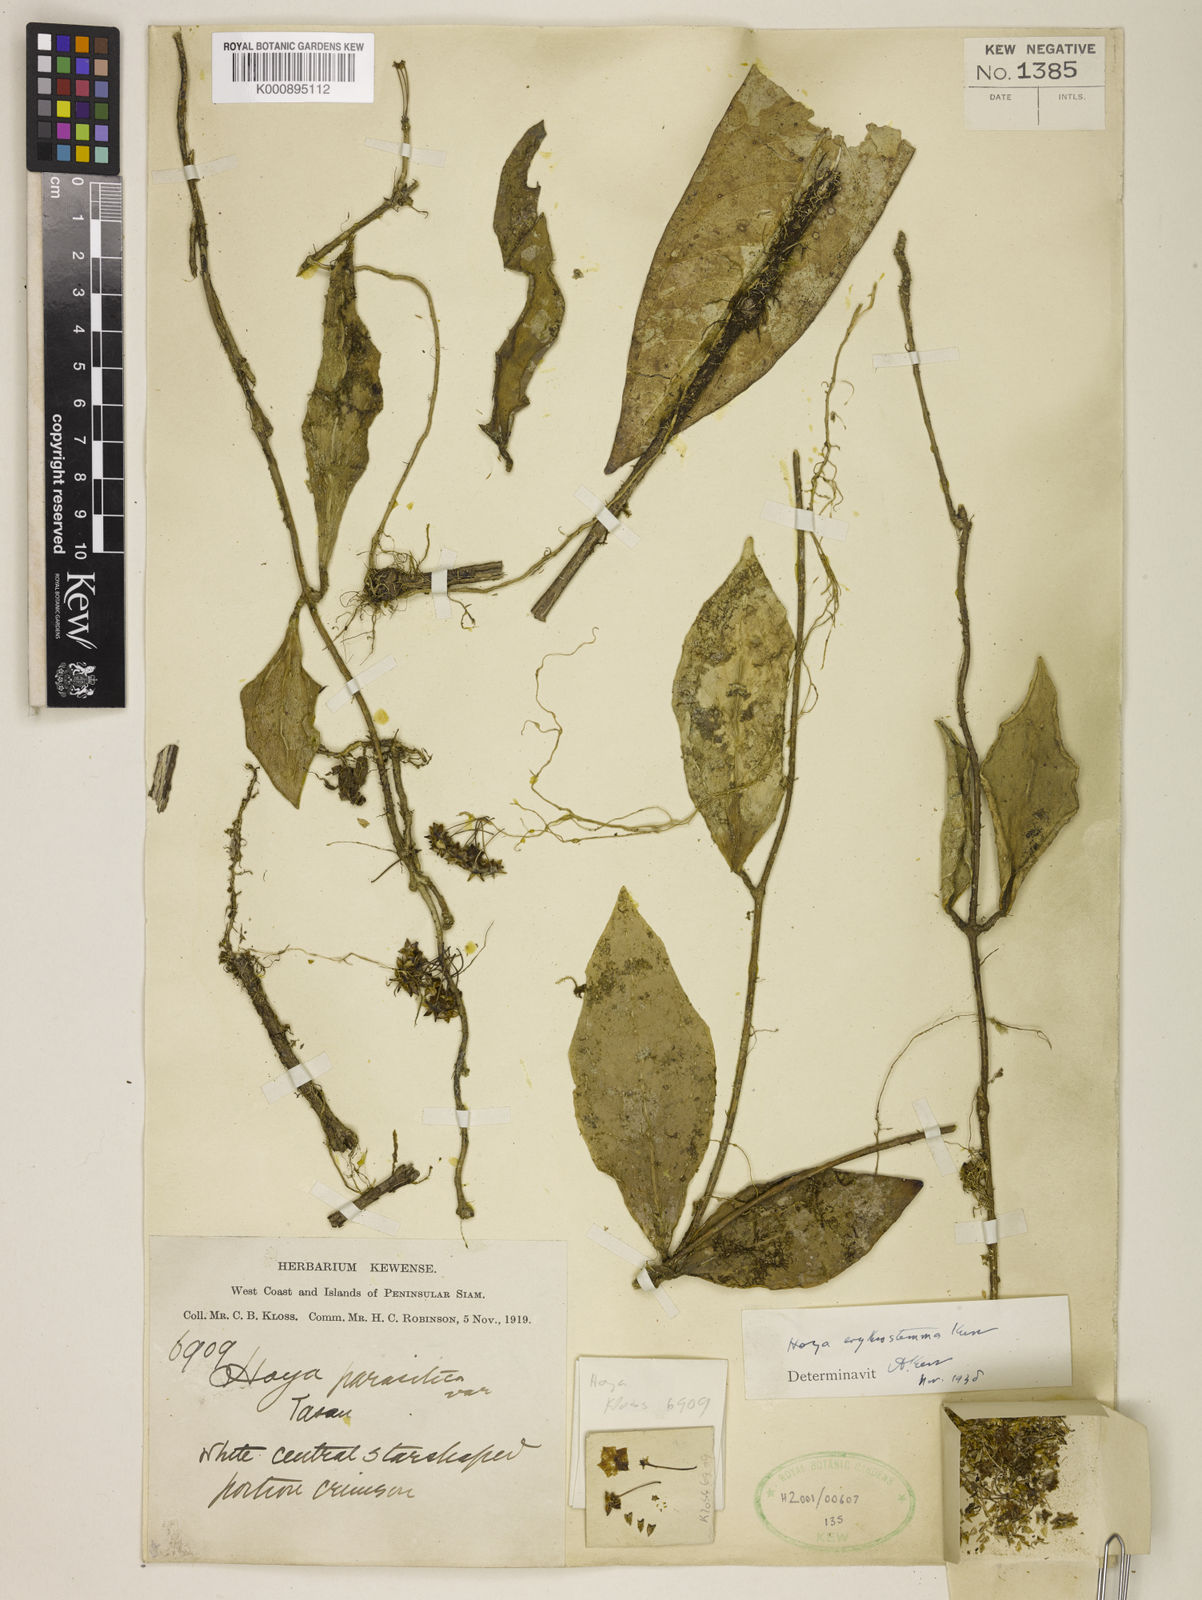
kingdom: Plantae
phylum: Tracheophyta
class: Magnoliopsida
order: Gentianales
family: Apocynaceae
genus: Hoya
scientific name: Hoya erythrostemma
